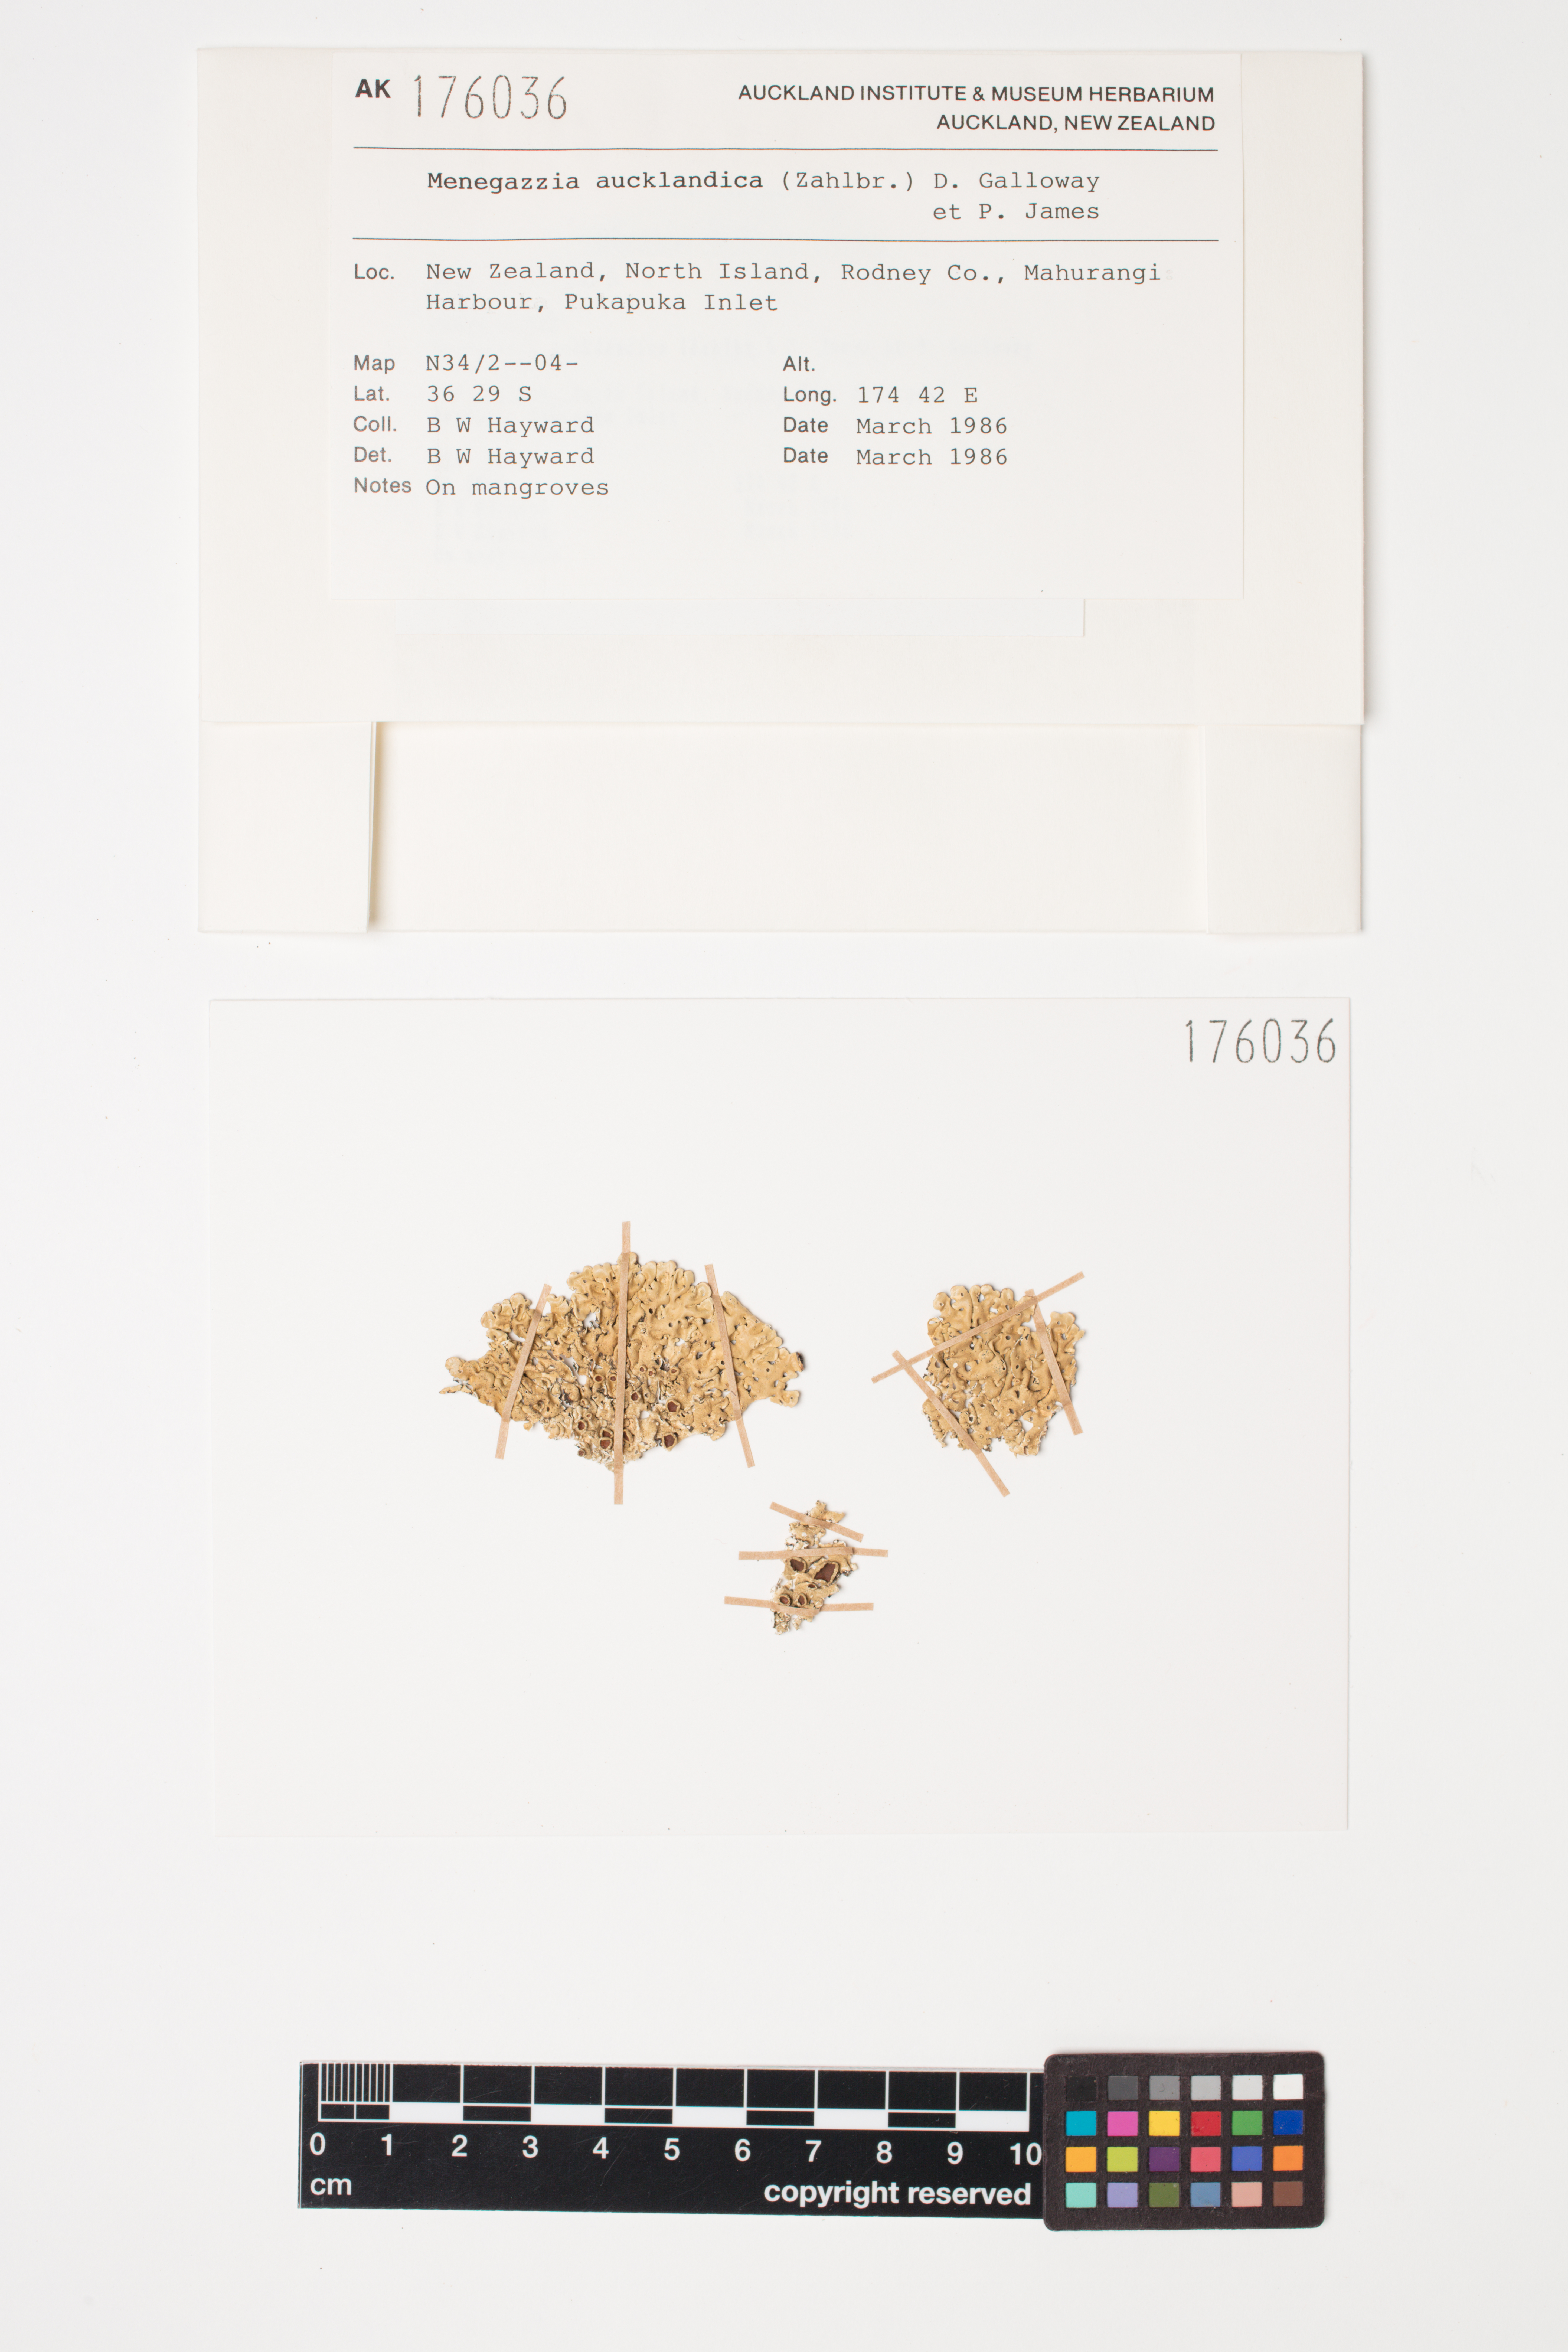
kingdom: Fungi
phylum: Ascomycota
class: Lecanoromycetes
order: Lecanorales
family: Parmeliaceae
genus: Menegazzia
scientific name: Menegazzia aucklandica
